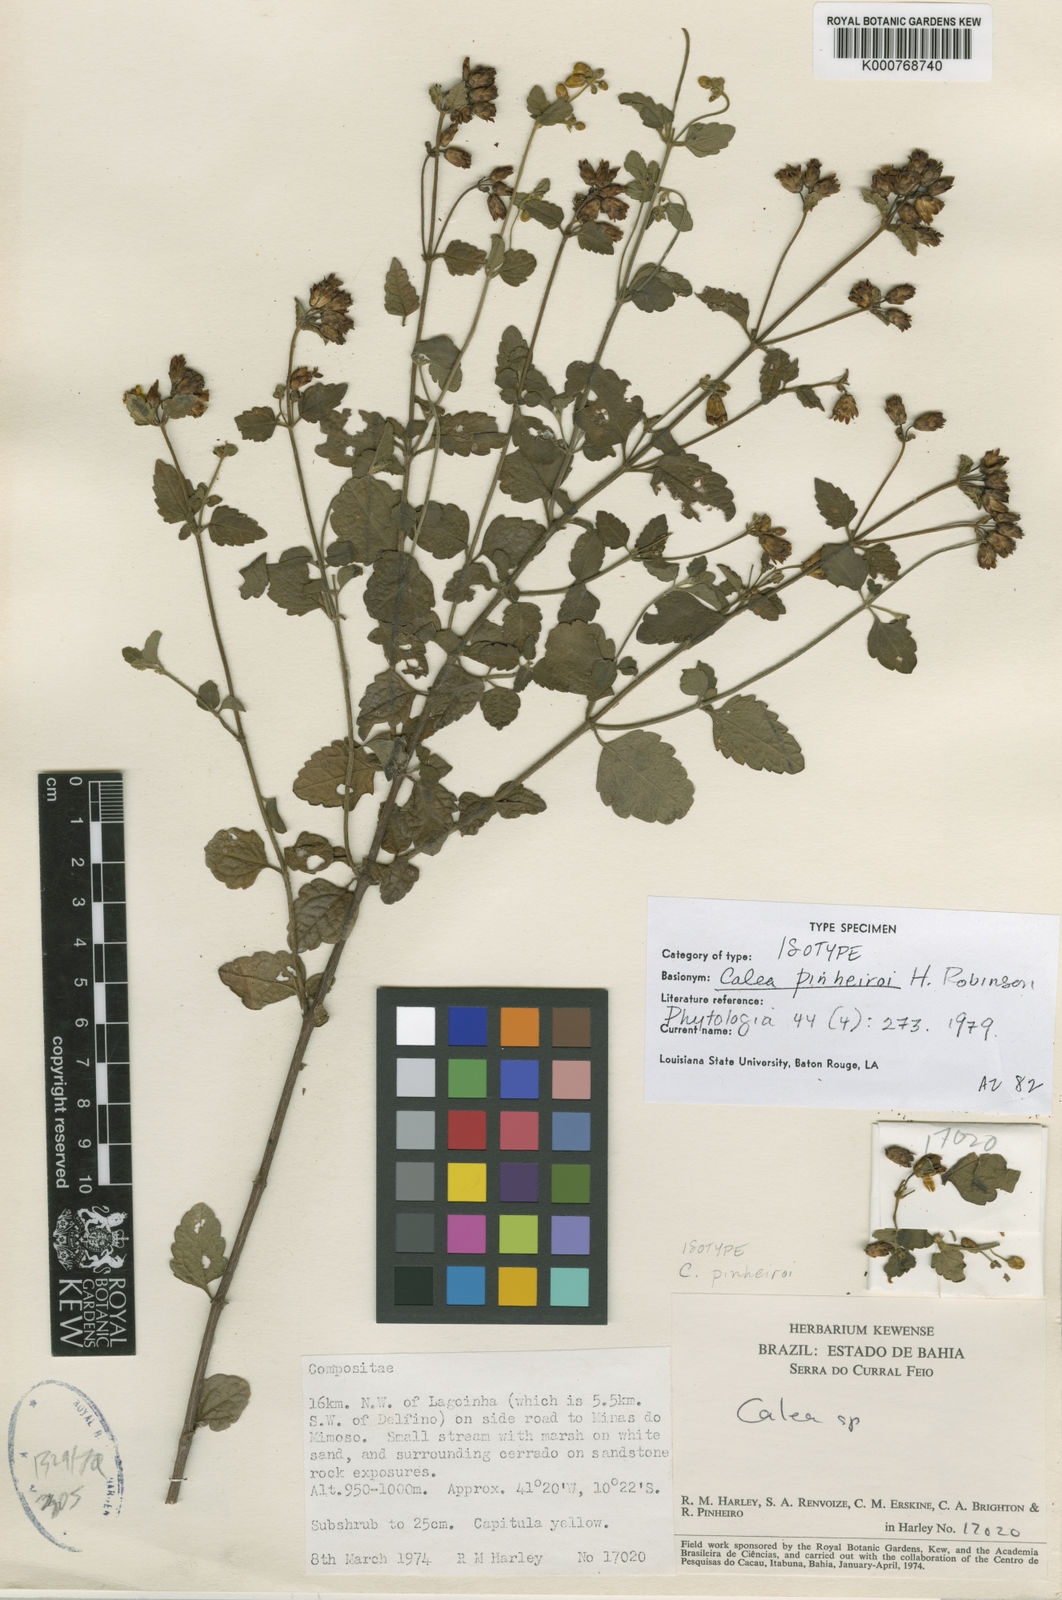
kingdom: Plantae
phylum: Tracheophyta
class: Magnoliopsida
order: Asterales
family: Asteraceae
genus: Calea
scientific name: Calea pinheiroi
